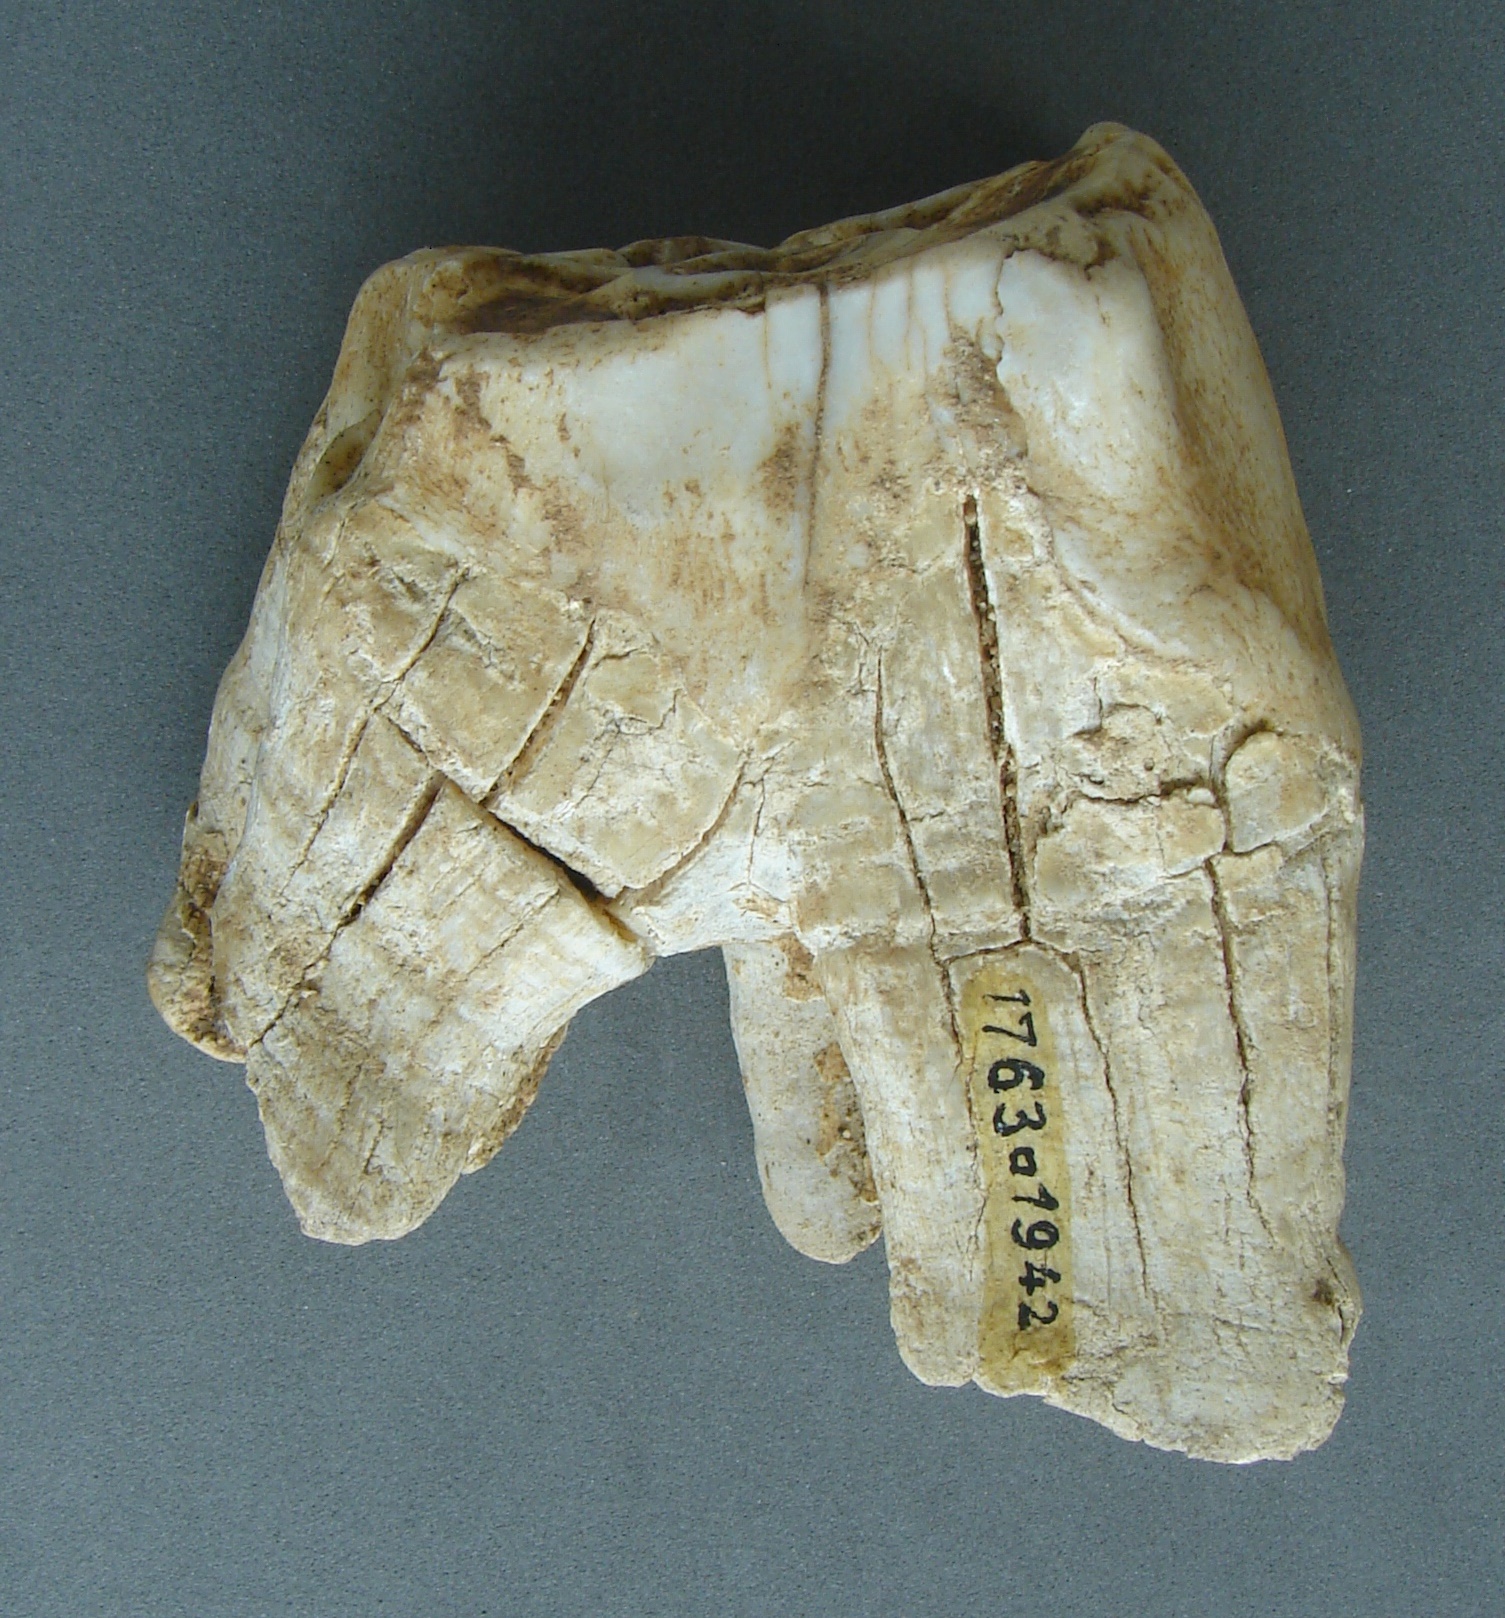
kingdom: Animalia
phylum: Chordata
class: Mammalia
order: Perissodactyla
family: Rhinocerotidae
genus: Rhinoceros
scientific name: Rhinoceros
